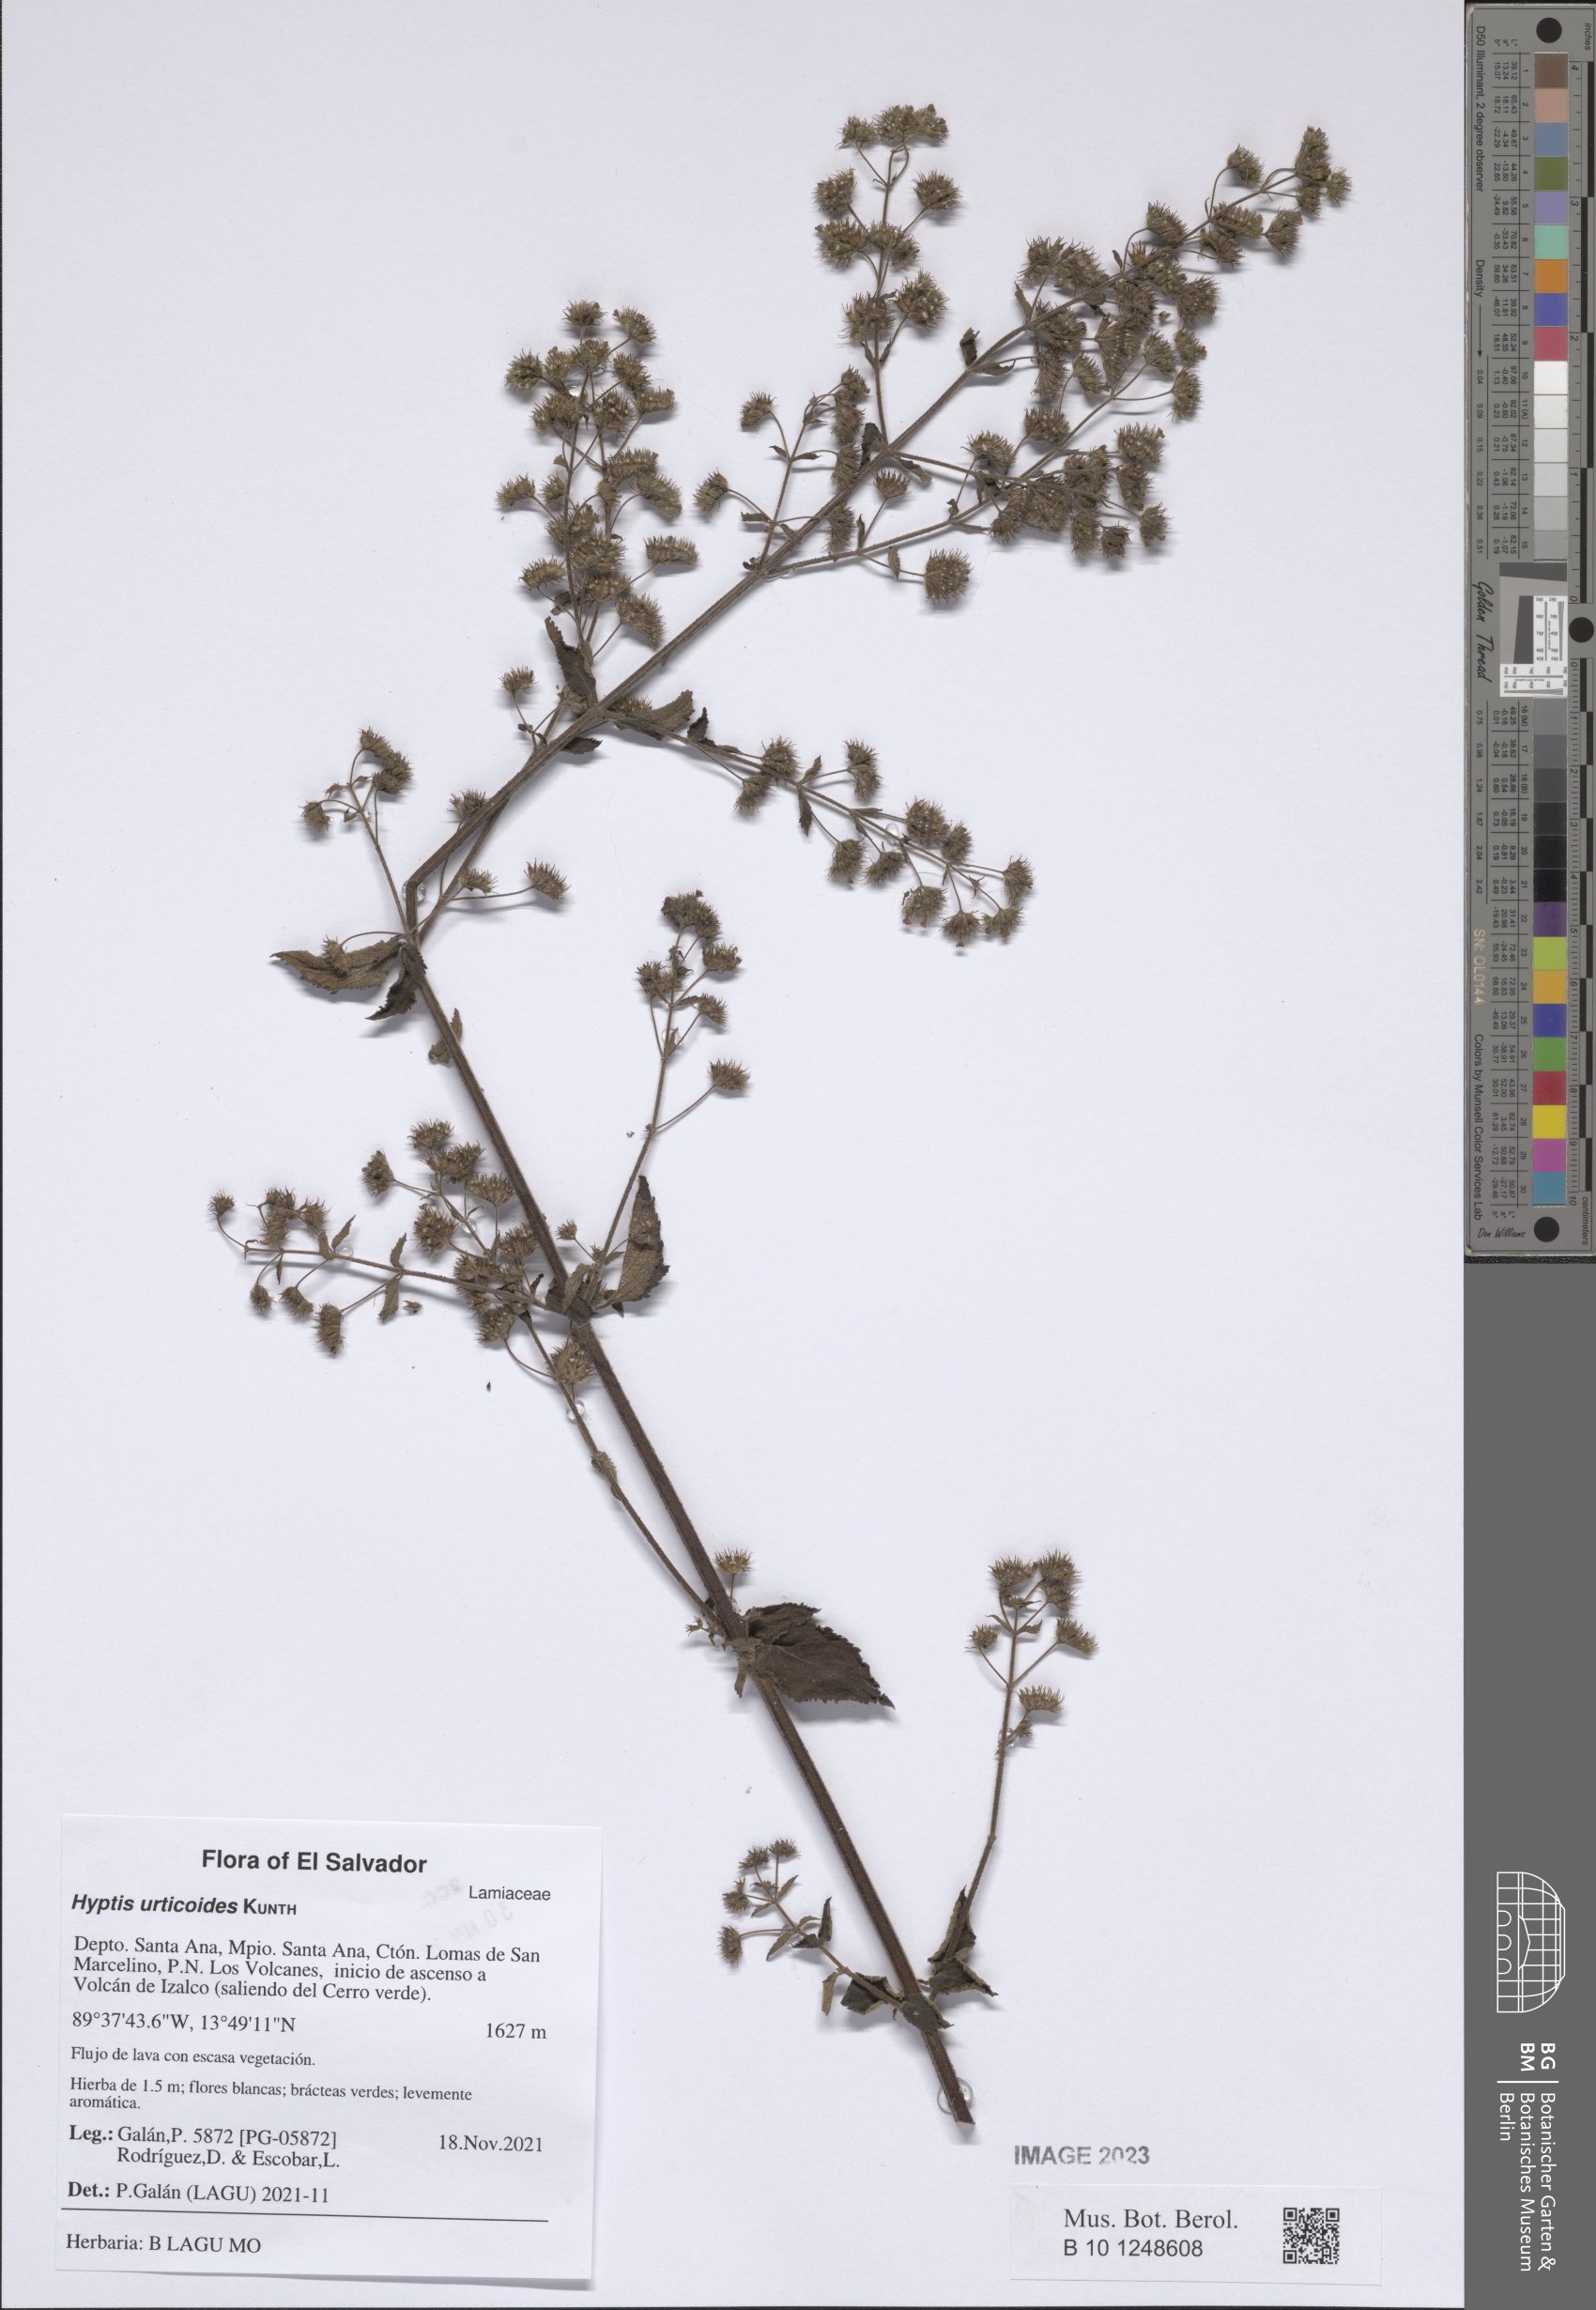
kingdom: Plantae
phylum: Tracheophyta
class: Magnoliopsida
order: Lamiales
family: Lamiaceae
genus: Mesosphaerum
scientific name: Mesosphaerum urticoides
